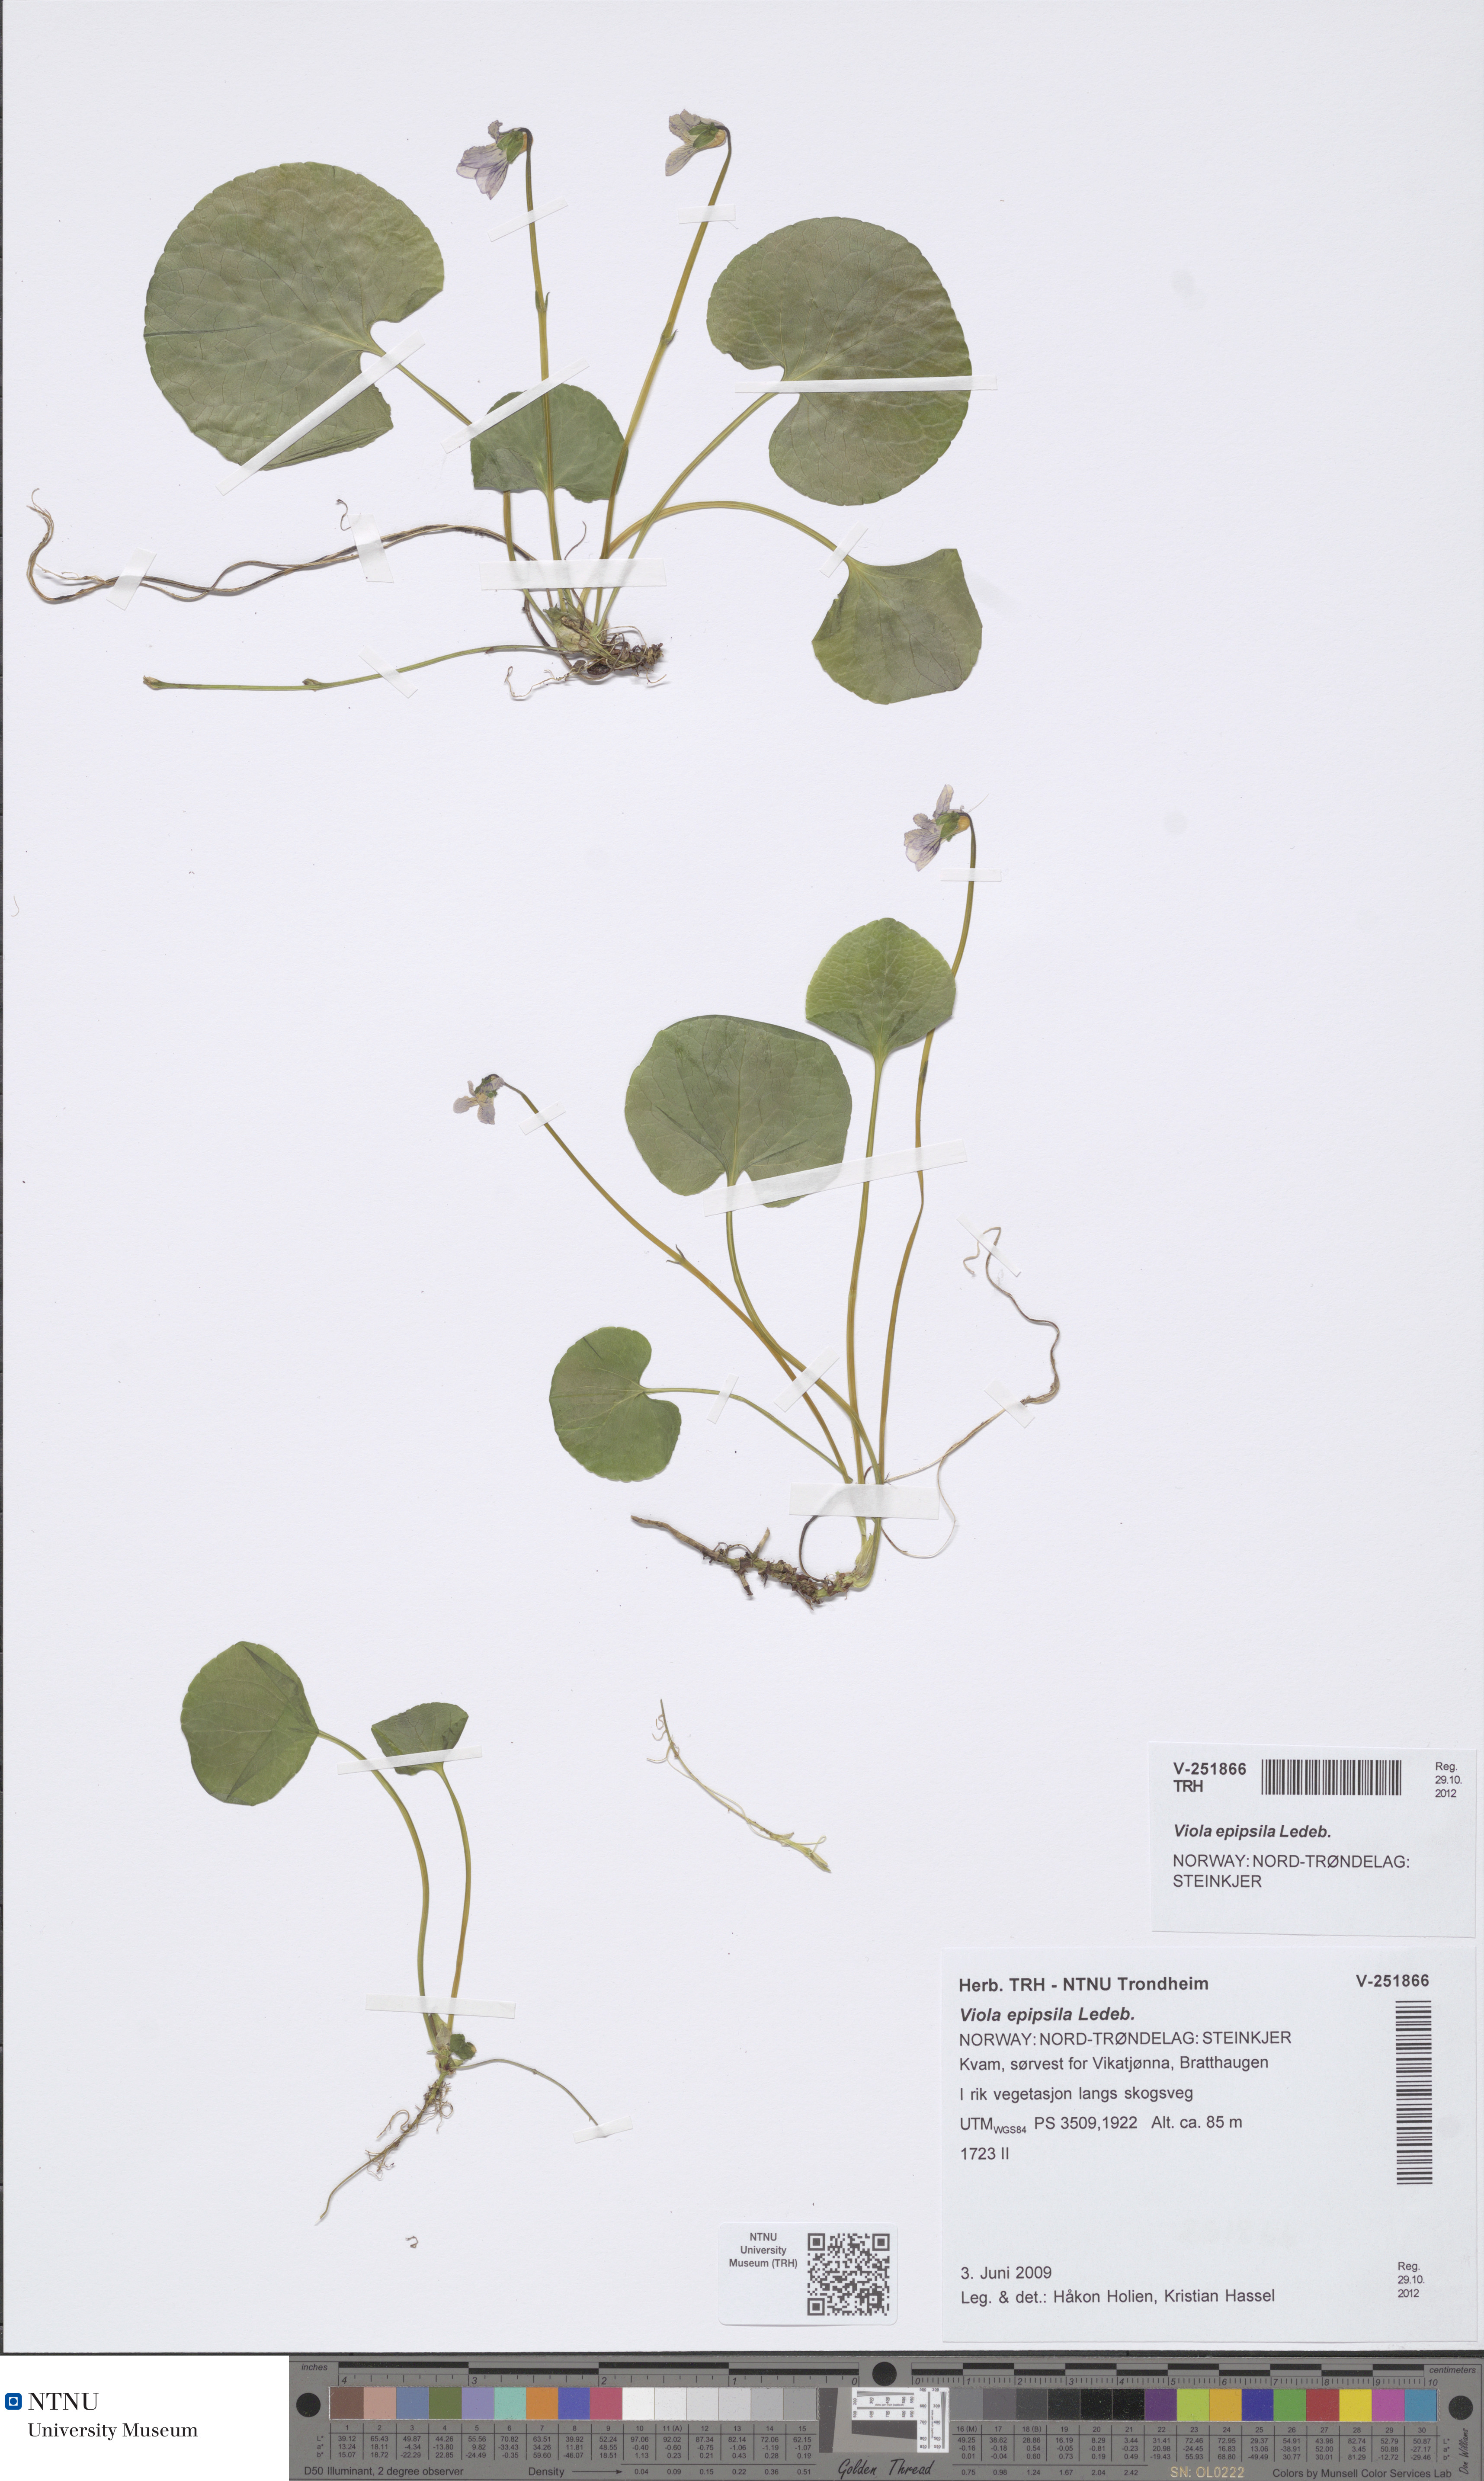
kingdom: Plantae
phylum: Tracheophyta
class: Magnoliopsida
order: Malpighiales
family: Violaceae
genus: Viola
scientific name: Viola epipsila
